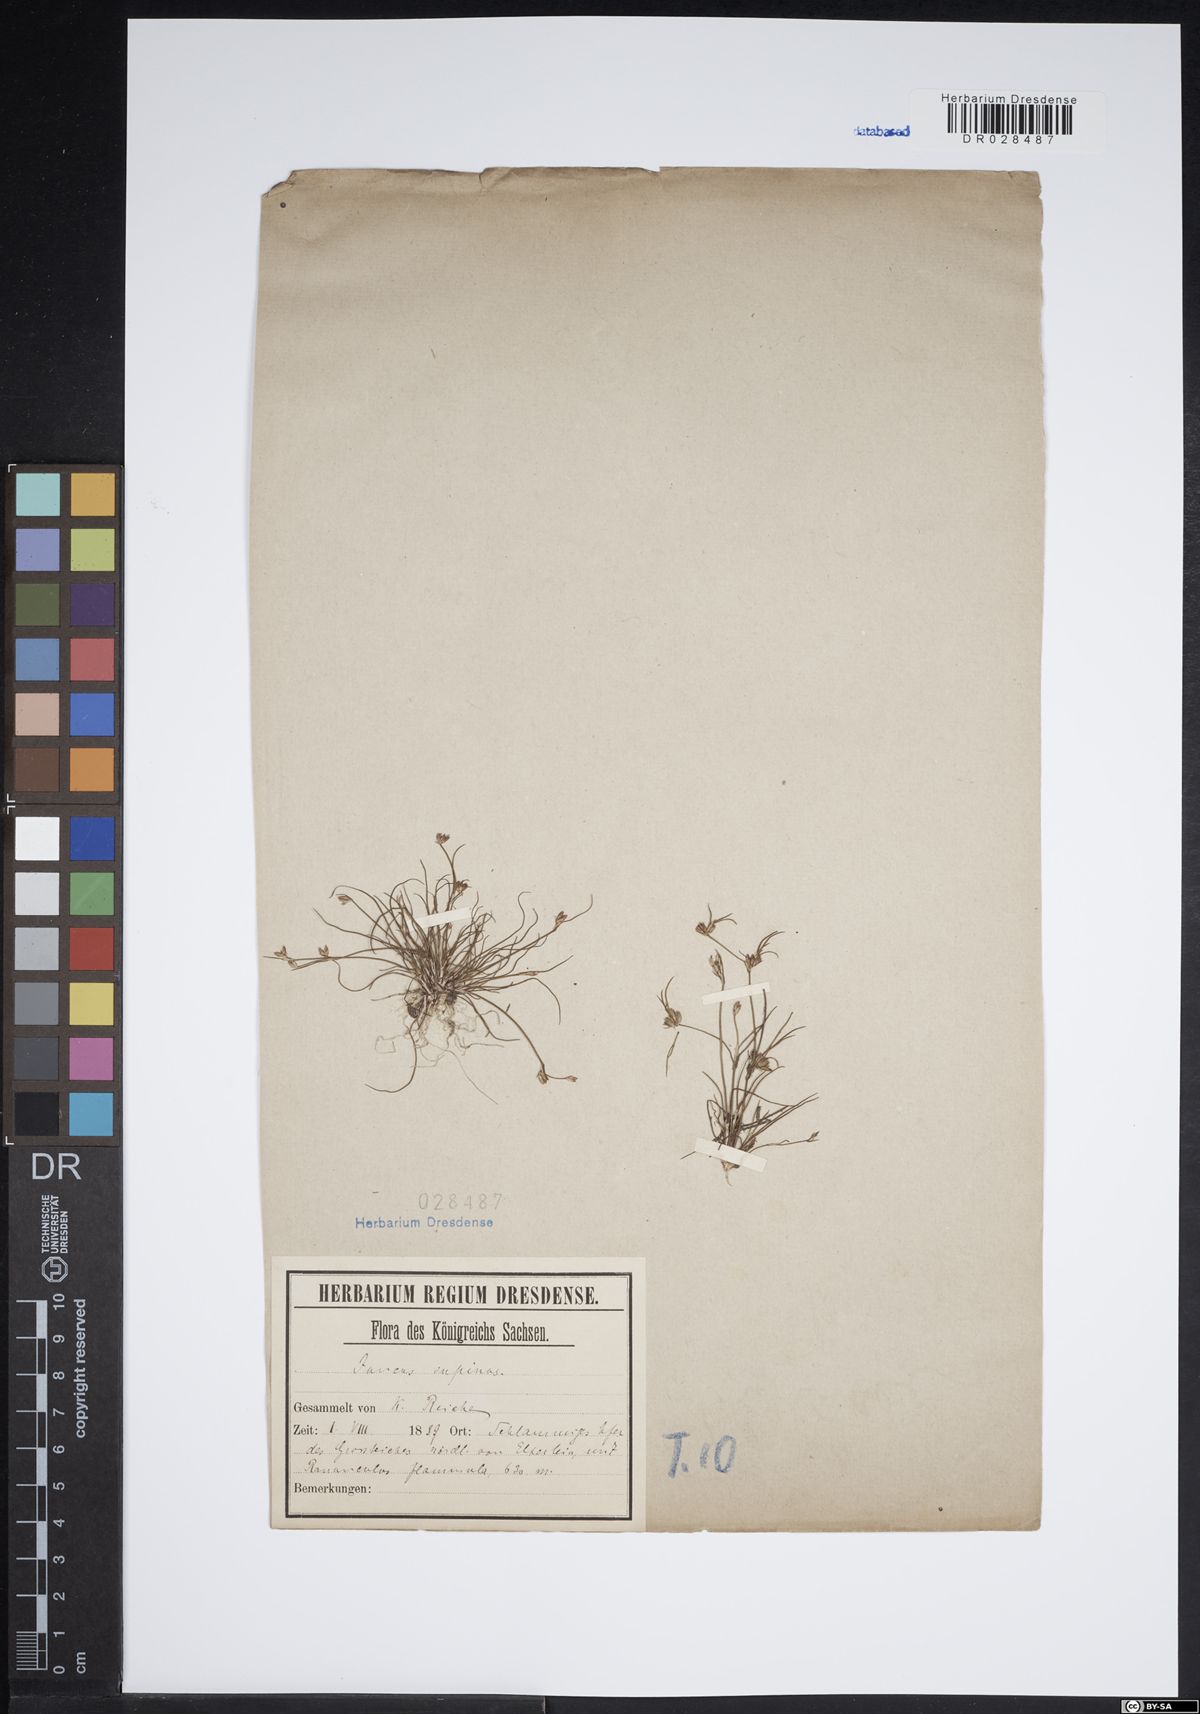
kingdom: Plantae
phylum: Tracheophyta
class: Liliopsida
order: Poales
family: Juncaceae
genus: Juncus
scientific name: Juncus bulbosus
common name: Bulbous rush
